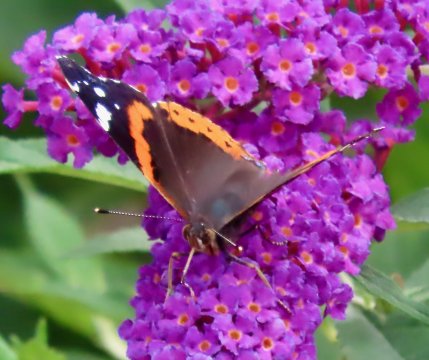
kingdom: Animalia
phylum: Arthropoda
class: Insecta
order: Lepidoptera
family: Nymphalidae
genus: Vanessa
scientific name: Vanessa atalanta
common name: Red Admiral
